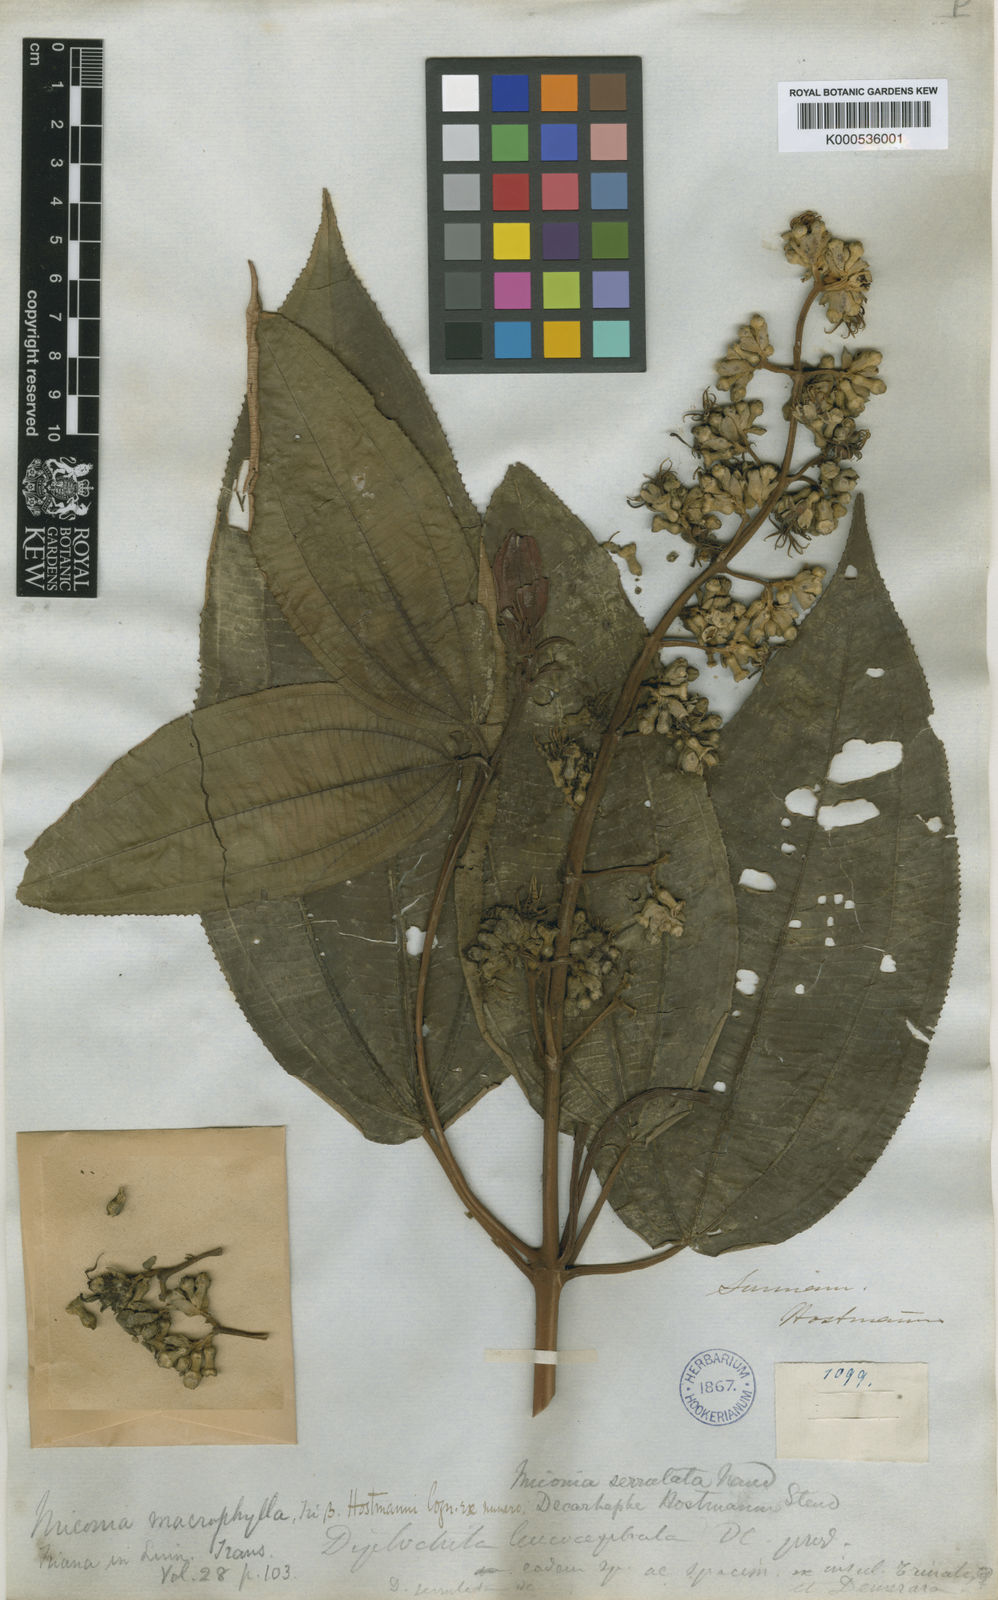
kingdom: Plantae
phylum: Tracheophyta
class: Magnoliopsida
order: Myrtales
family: Melastomataceae
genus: Miconia
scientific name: Miconia serrulata
